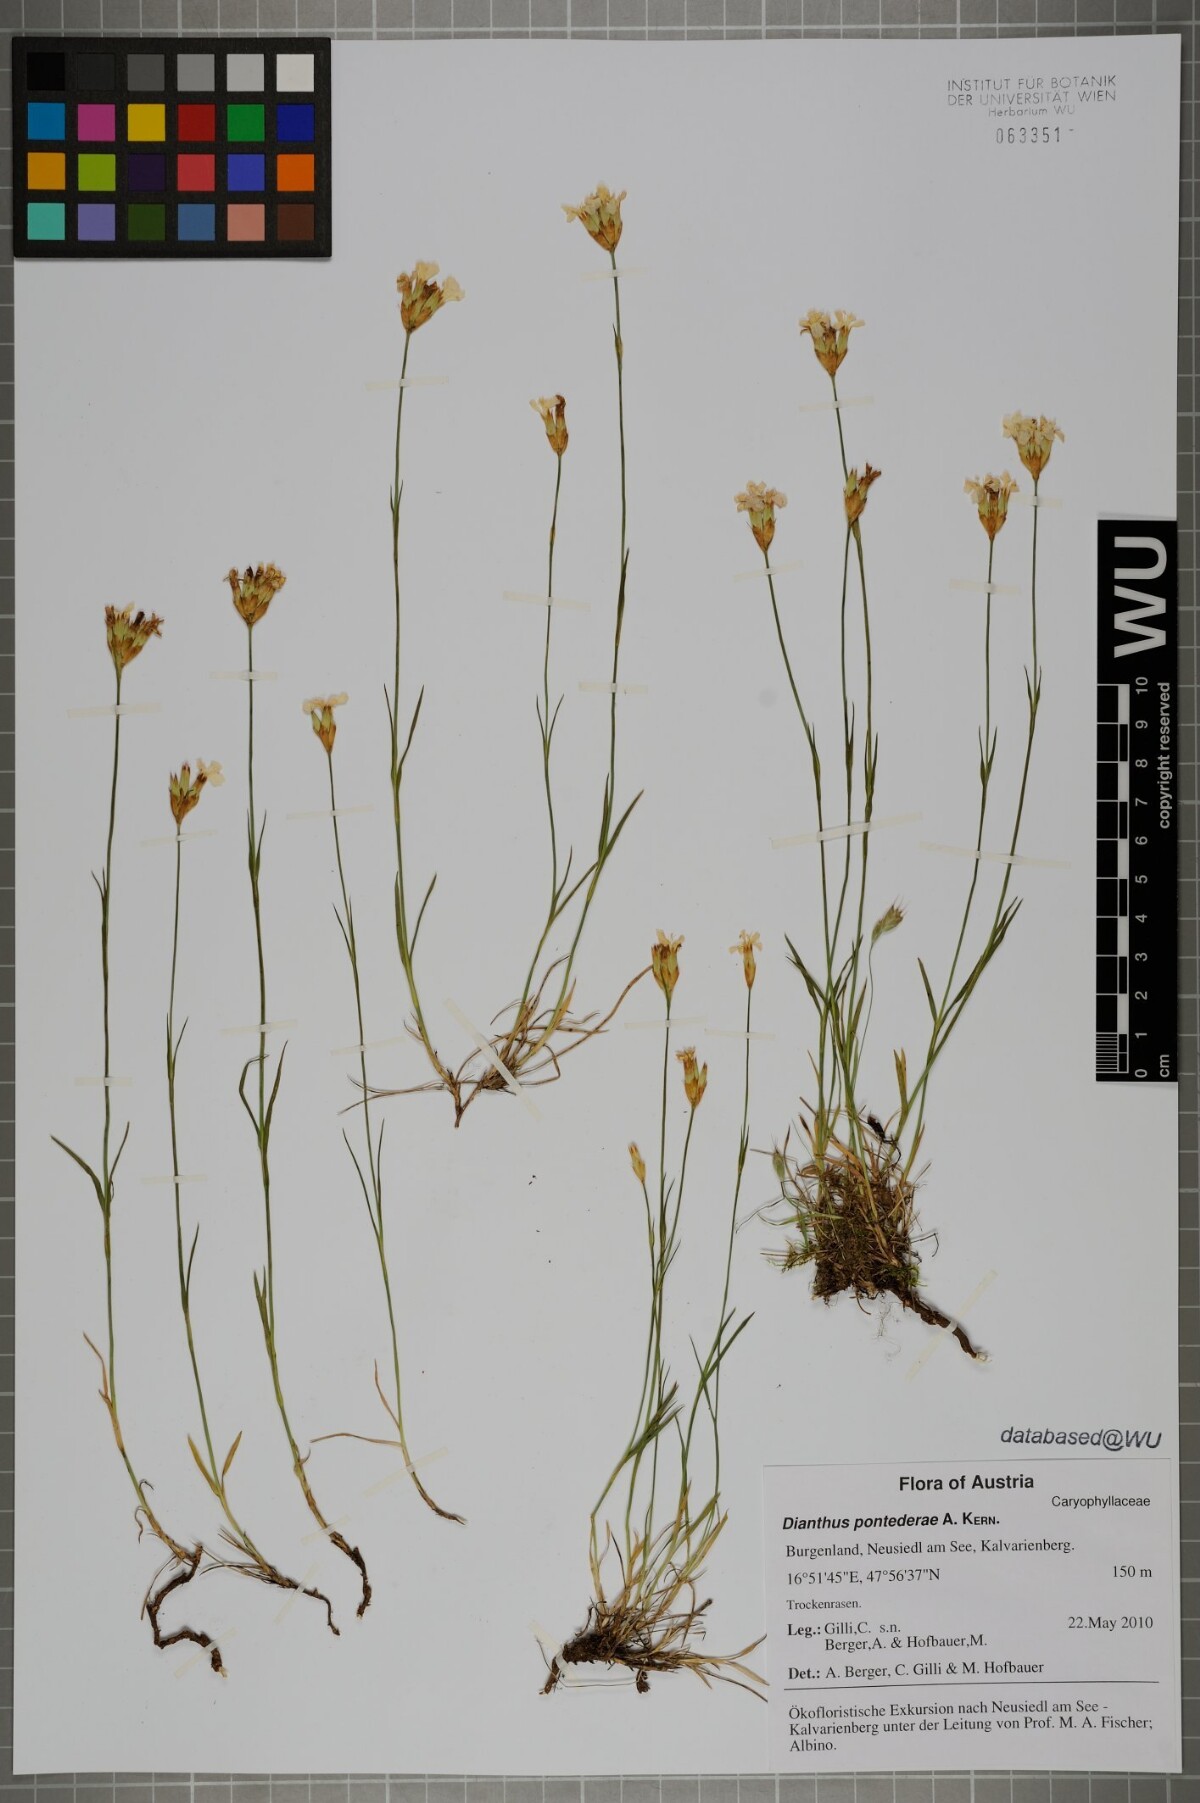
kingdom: Plantae
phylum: Tracheophyta
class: Magnoliopsida
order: Caryophyllales
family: Caryophyllaceae
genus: Dianthus
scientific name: Dianthus pontederae
